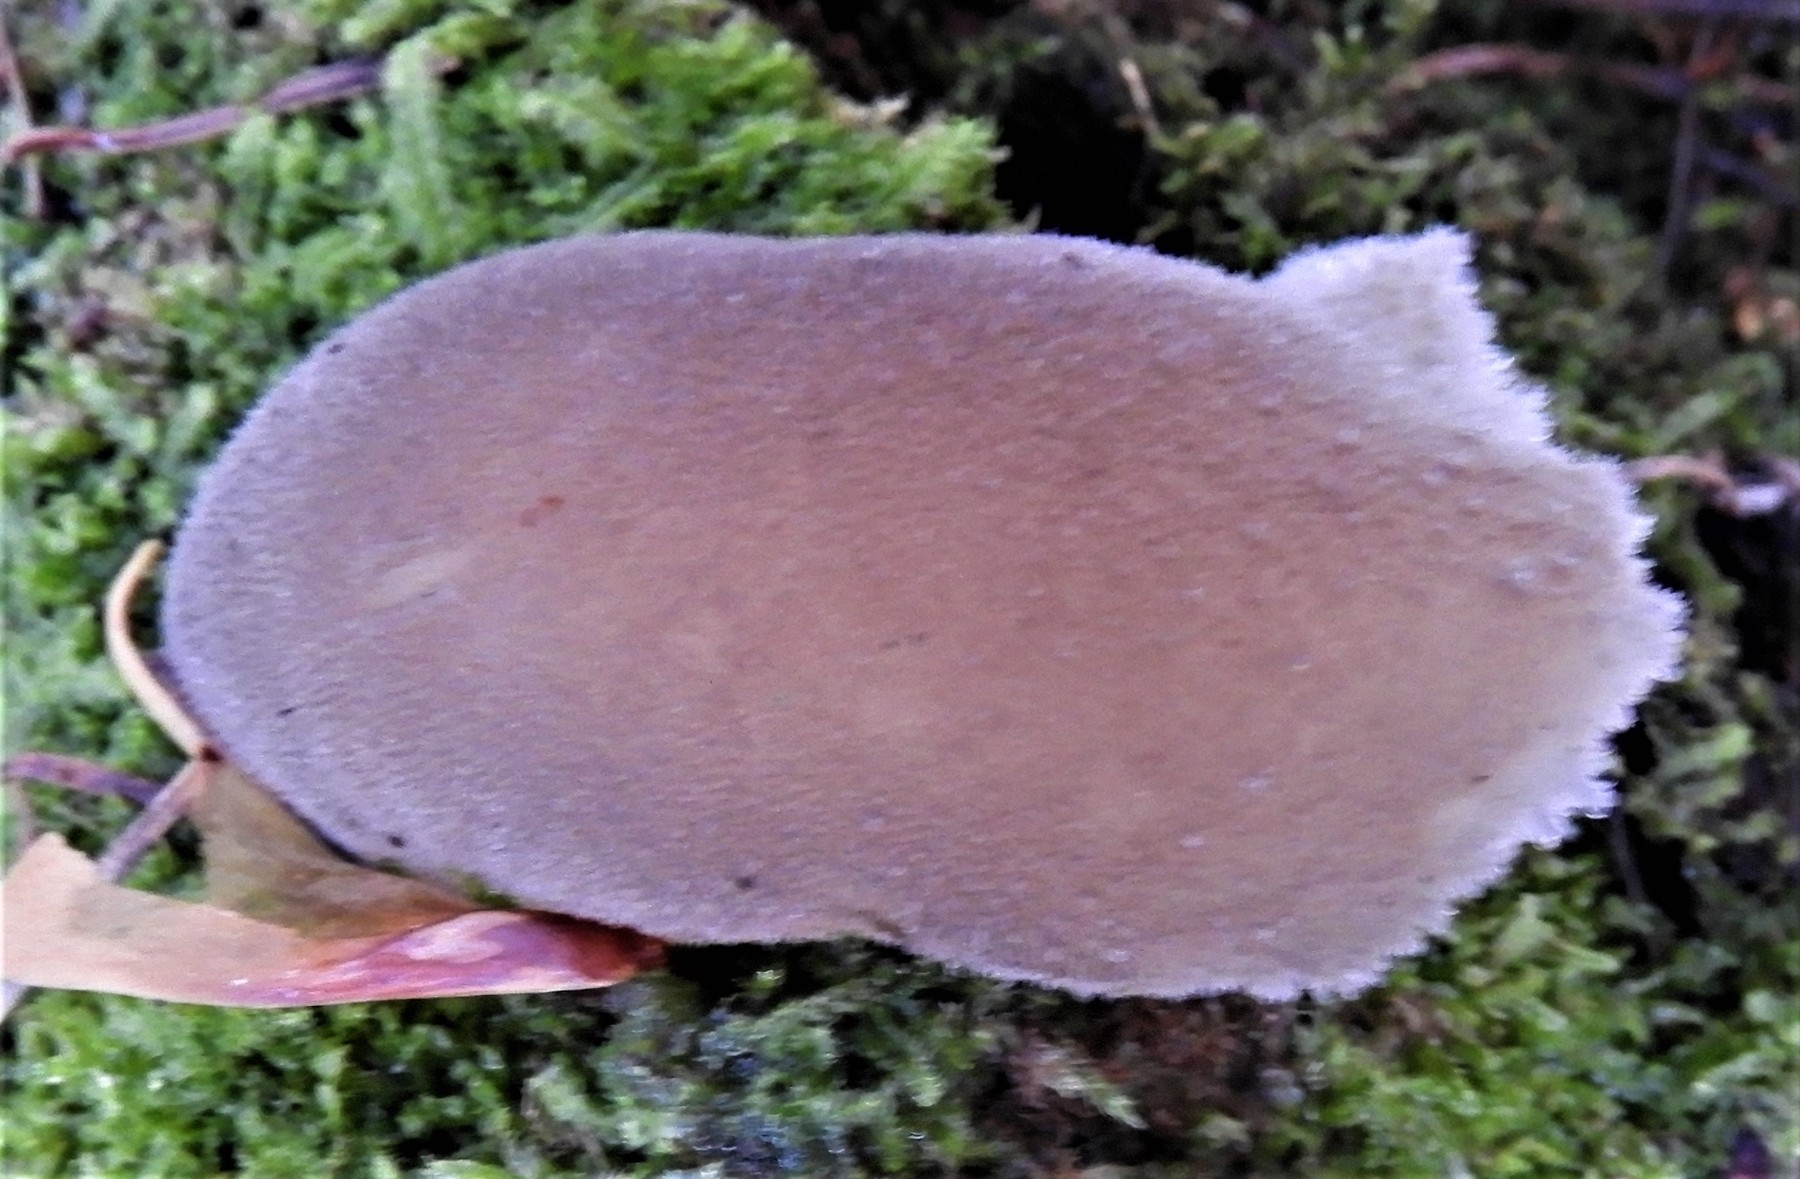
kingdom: Fungi
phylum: Basidiomycota
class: Agaricomycetes
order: Auriculariales
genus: Pseudohydnum
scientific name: Pseudohydnum gelatinosum
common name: bævretand
